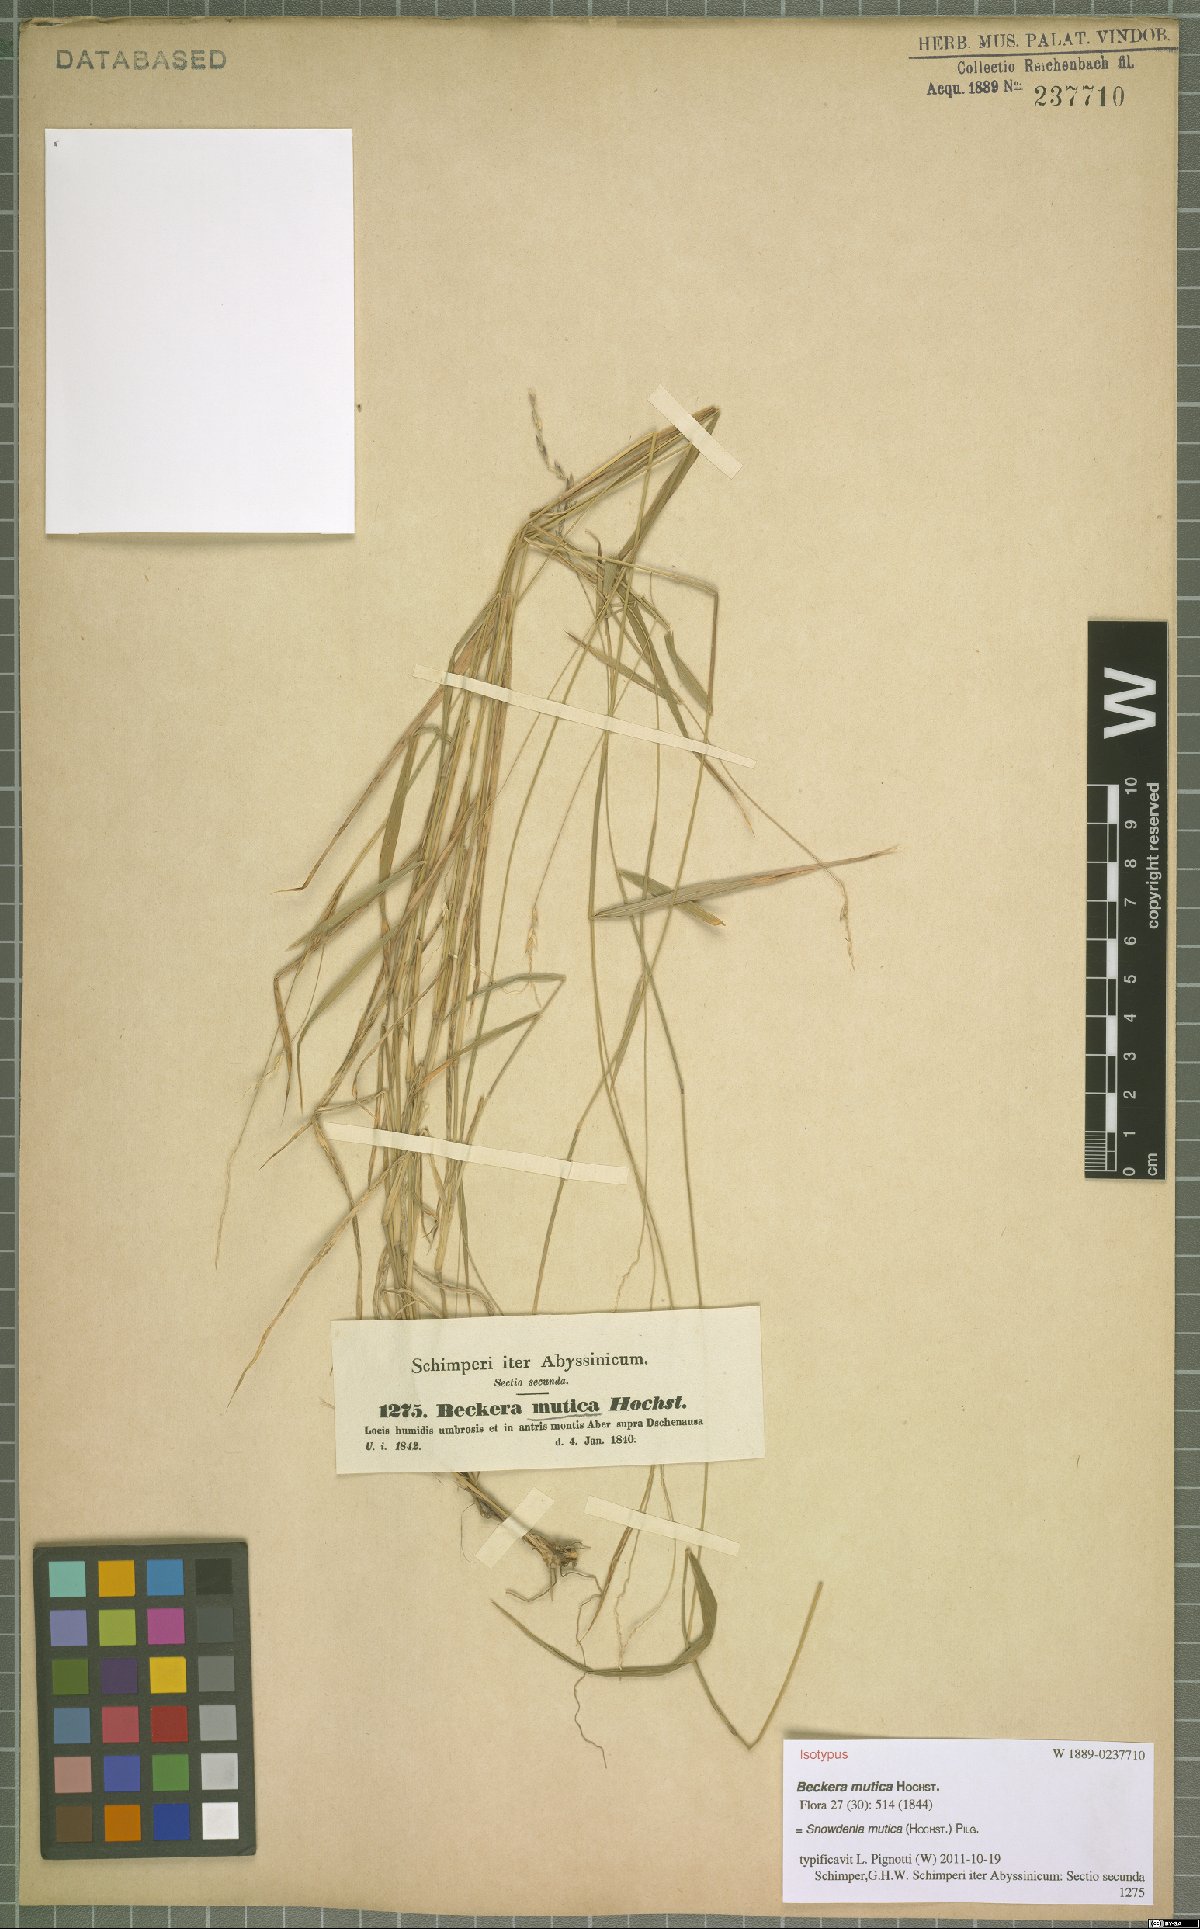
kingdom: Plantae
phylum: Tracheophyta
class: Liliopsida
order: Poales
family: Poaceae
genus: Snowdenia
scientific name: Snowdenia mutica
